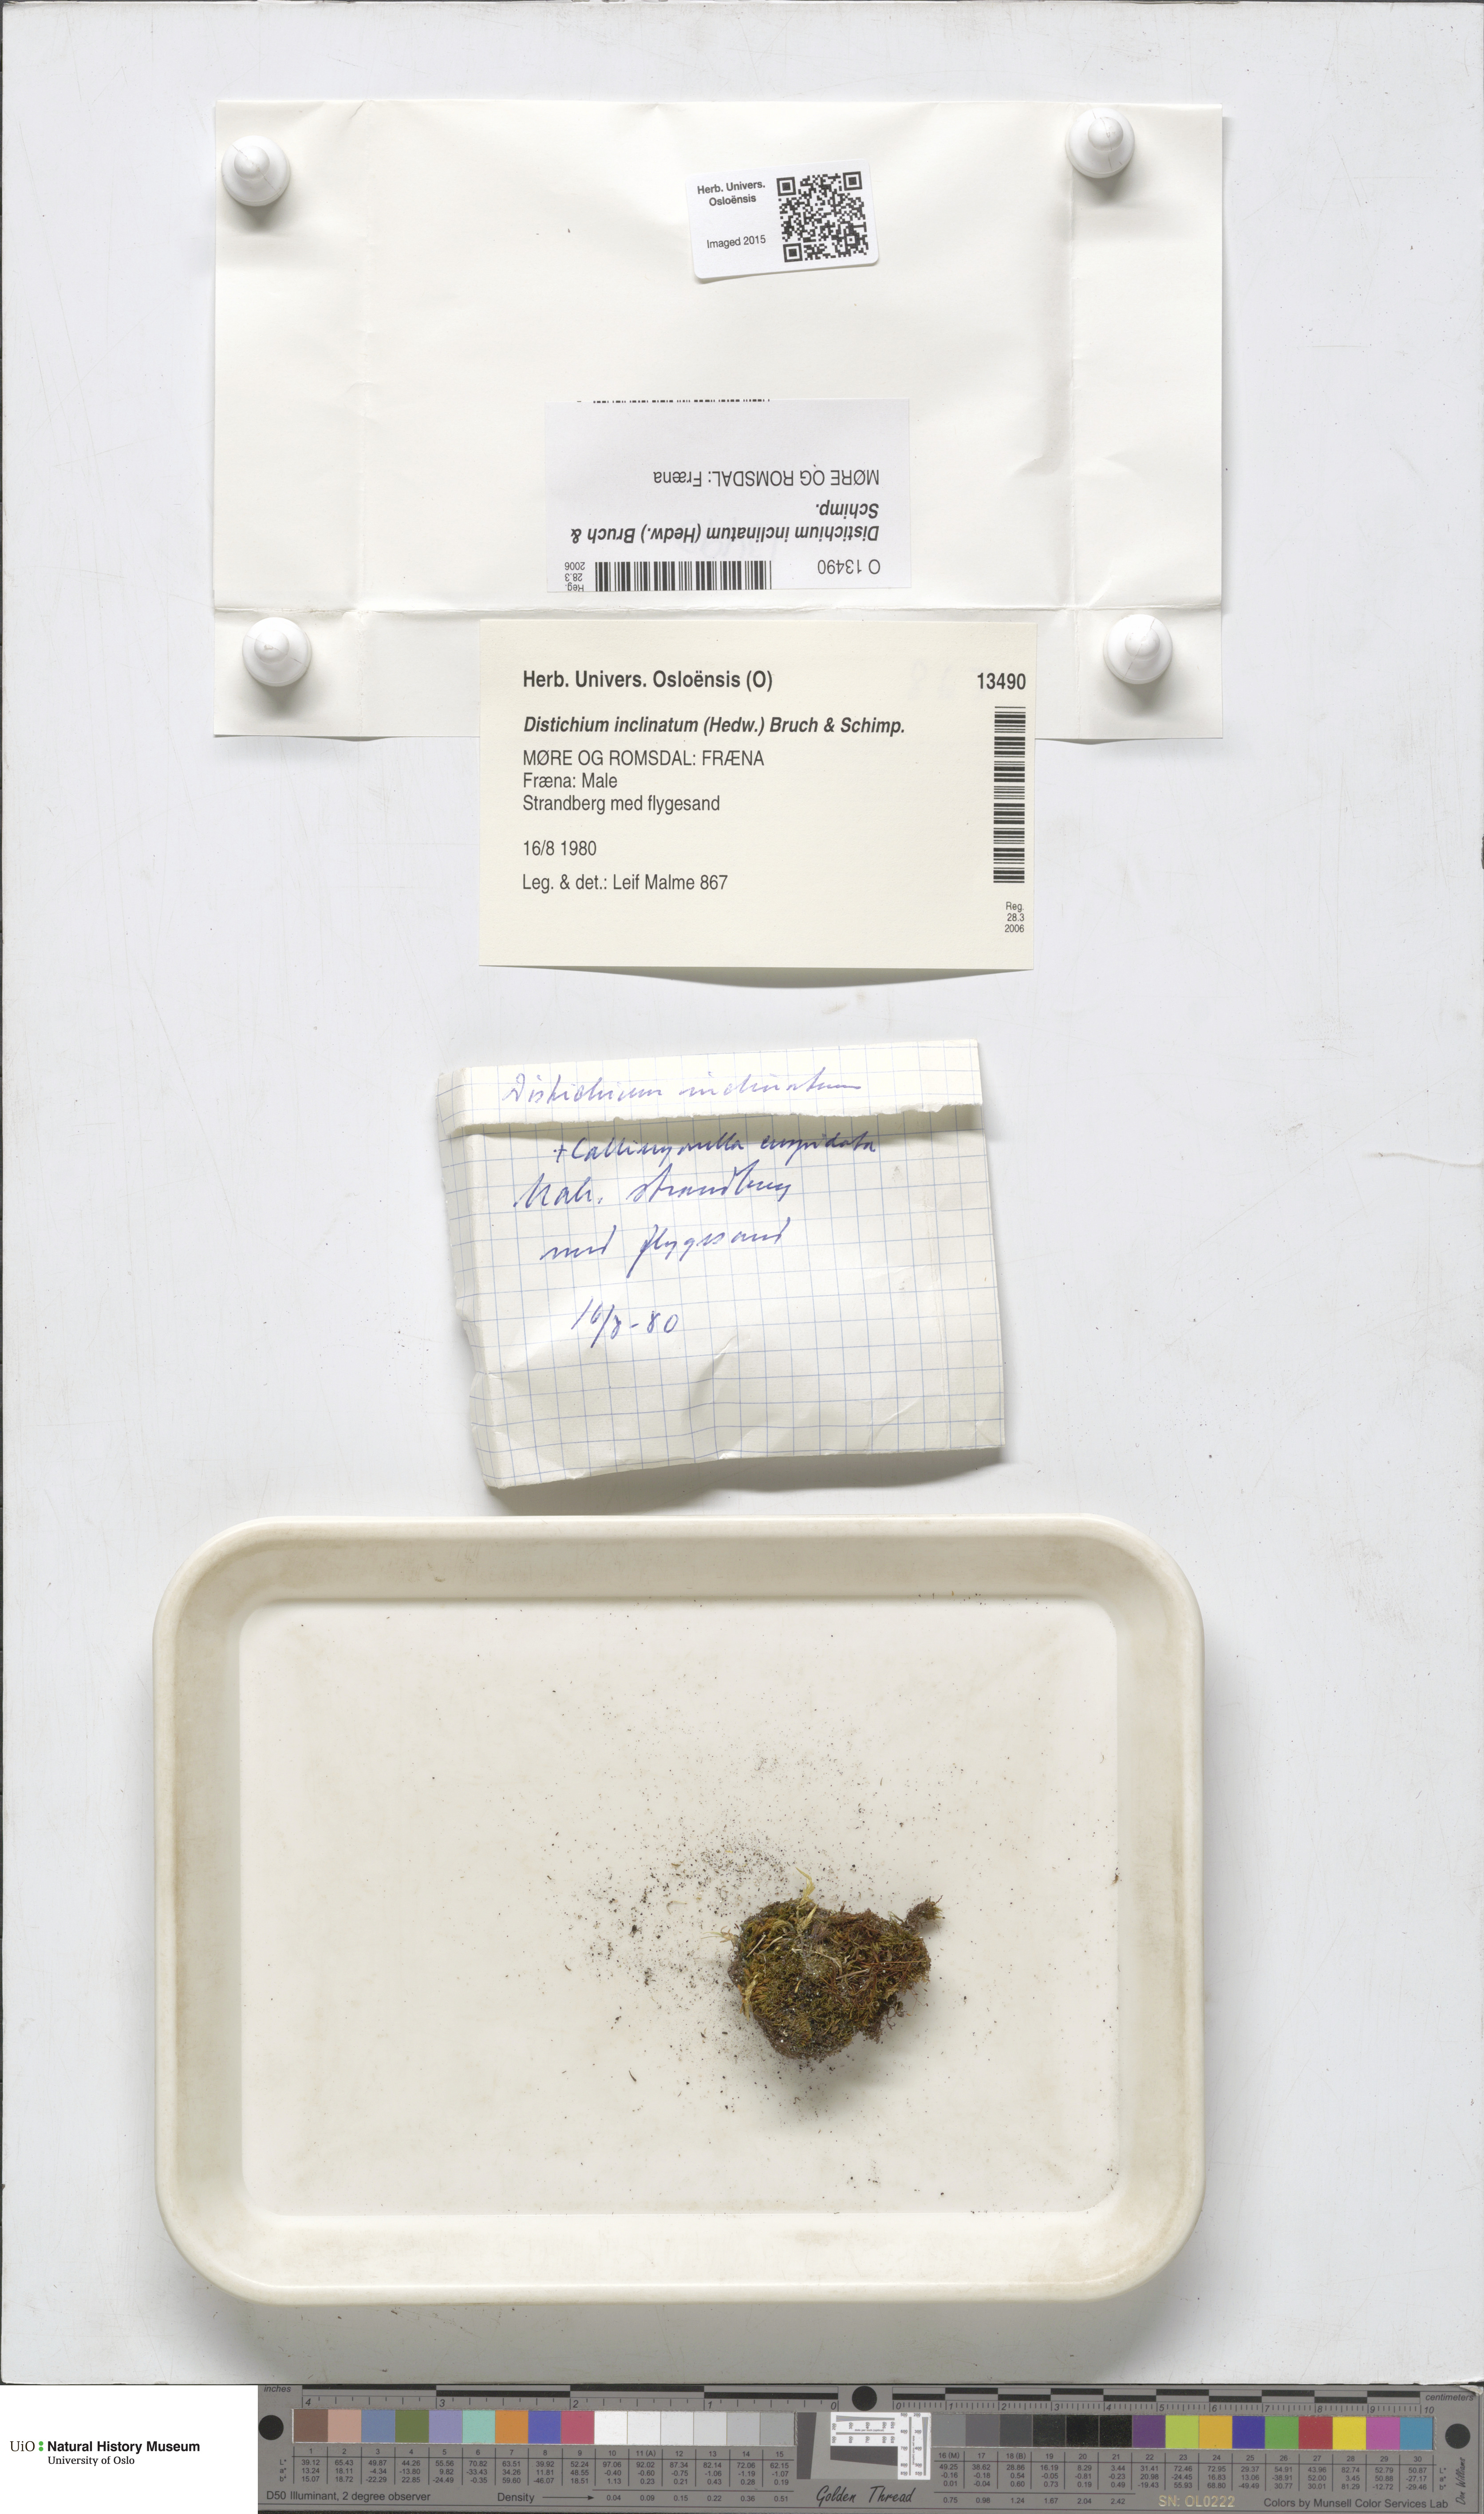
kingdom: Plantae
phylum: Bryophyta
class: Bryopsida
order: Scouleriales
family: Distichiaceae
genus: Distichium
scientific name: Distichium inclinatum
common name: Inclined iris moss
